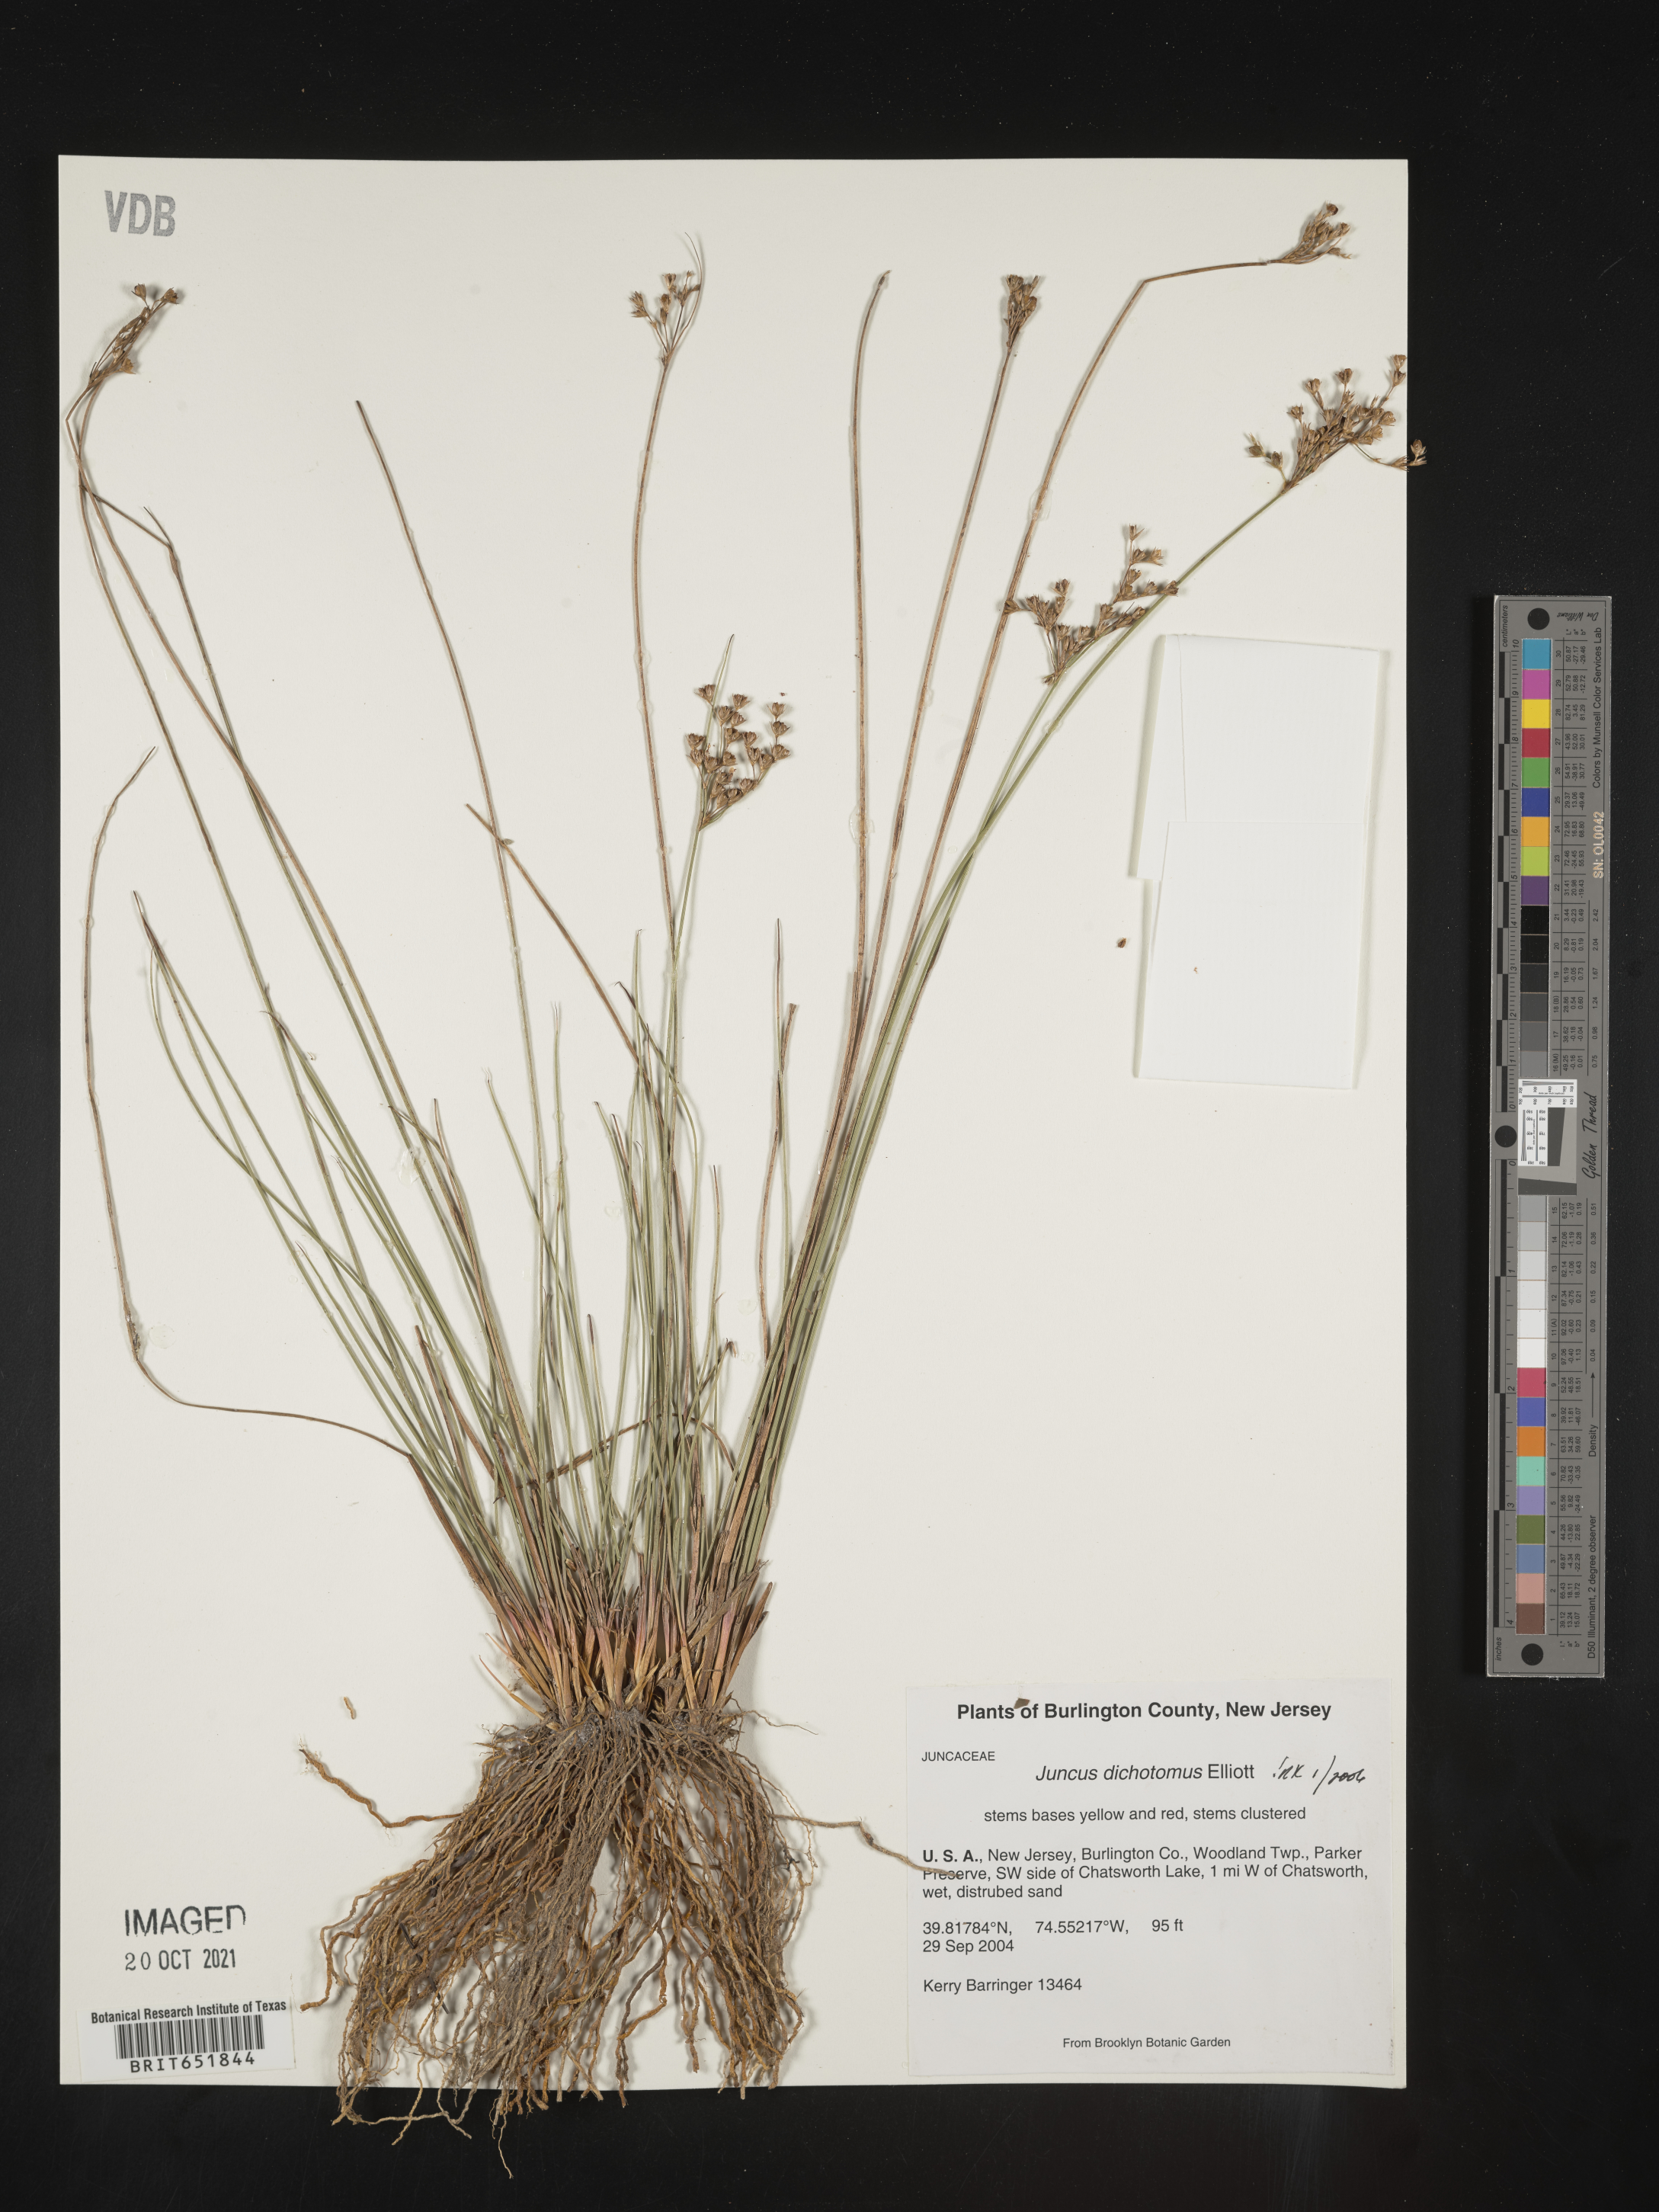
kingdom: Plantae
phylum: Tracheophyta
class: Liliopsida
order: Poales
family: Juncaceae
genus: Juncus
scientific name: Juncus dichotomus
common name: Forked rush
